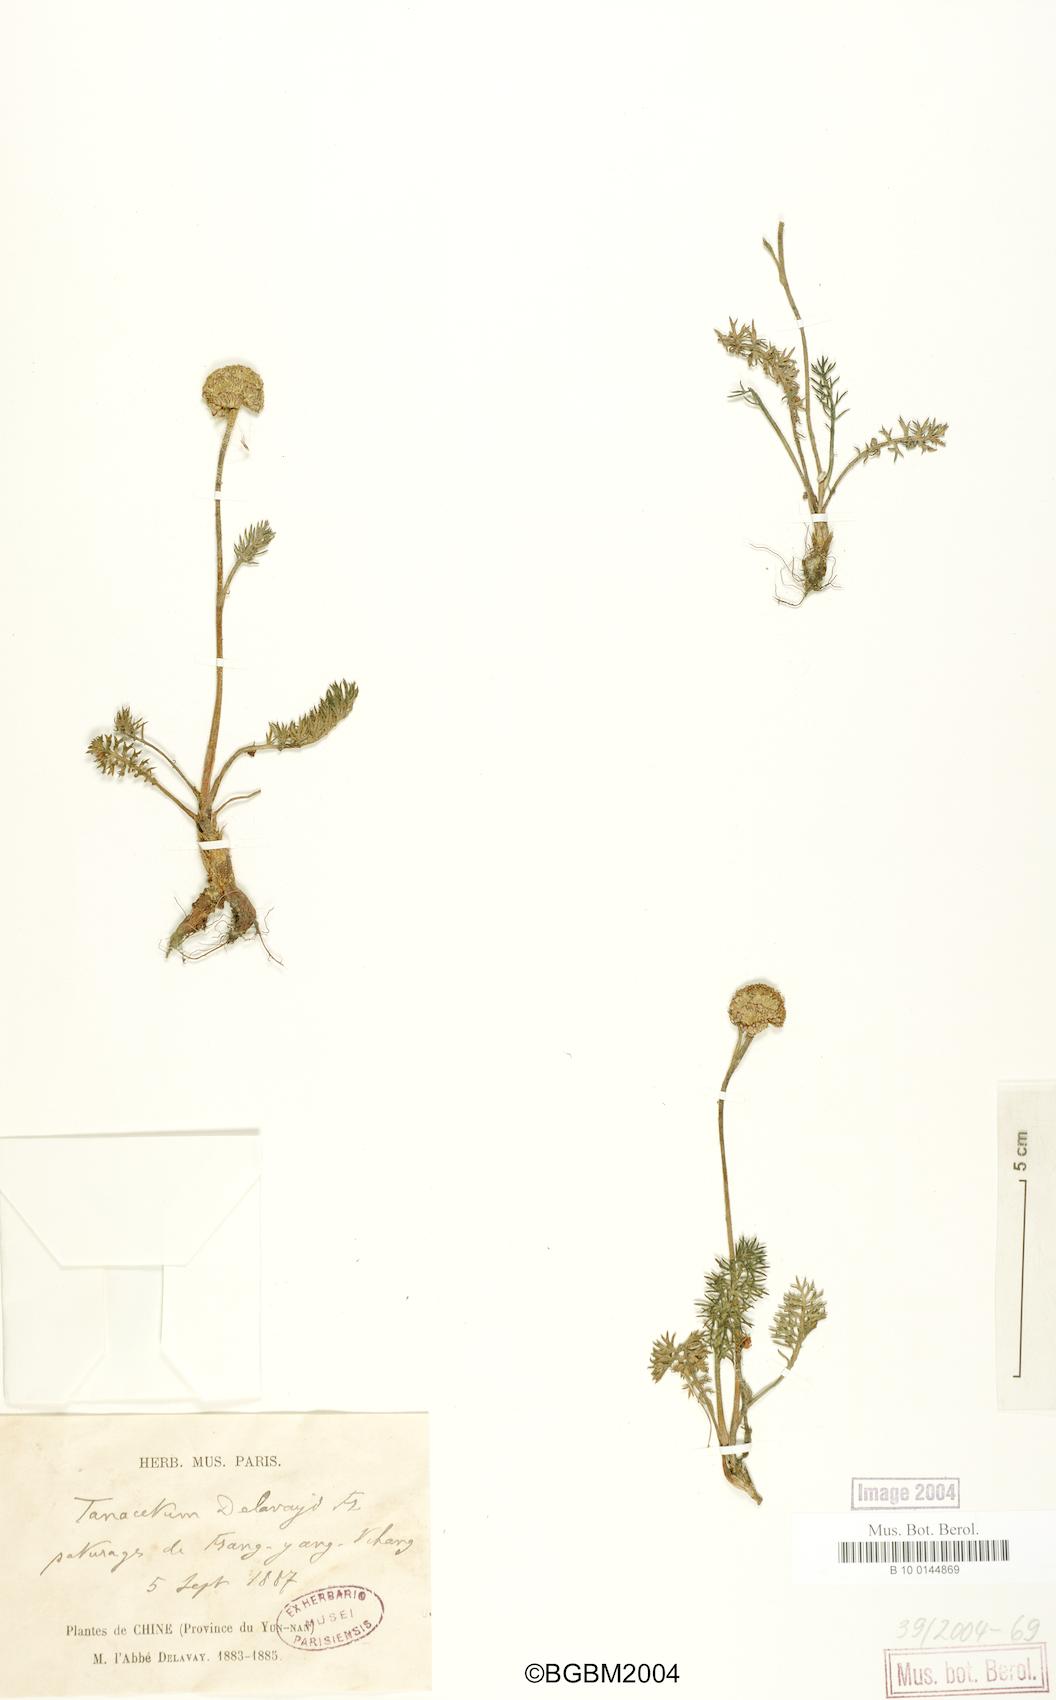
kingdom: Plantae
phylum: Tracheophyta
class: Magnoliopsida
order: Asterales
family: Asteraceae
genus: Hippolytia
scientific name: Hippolytia delavayi
